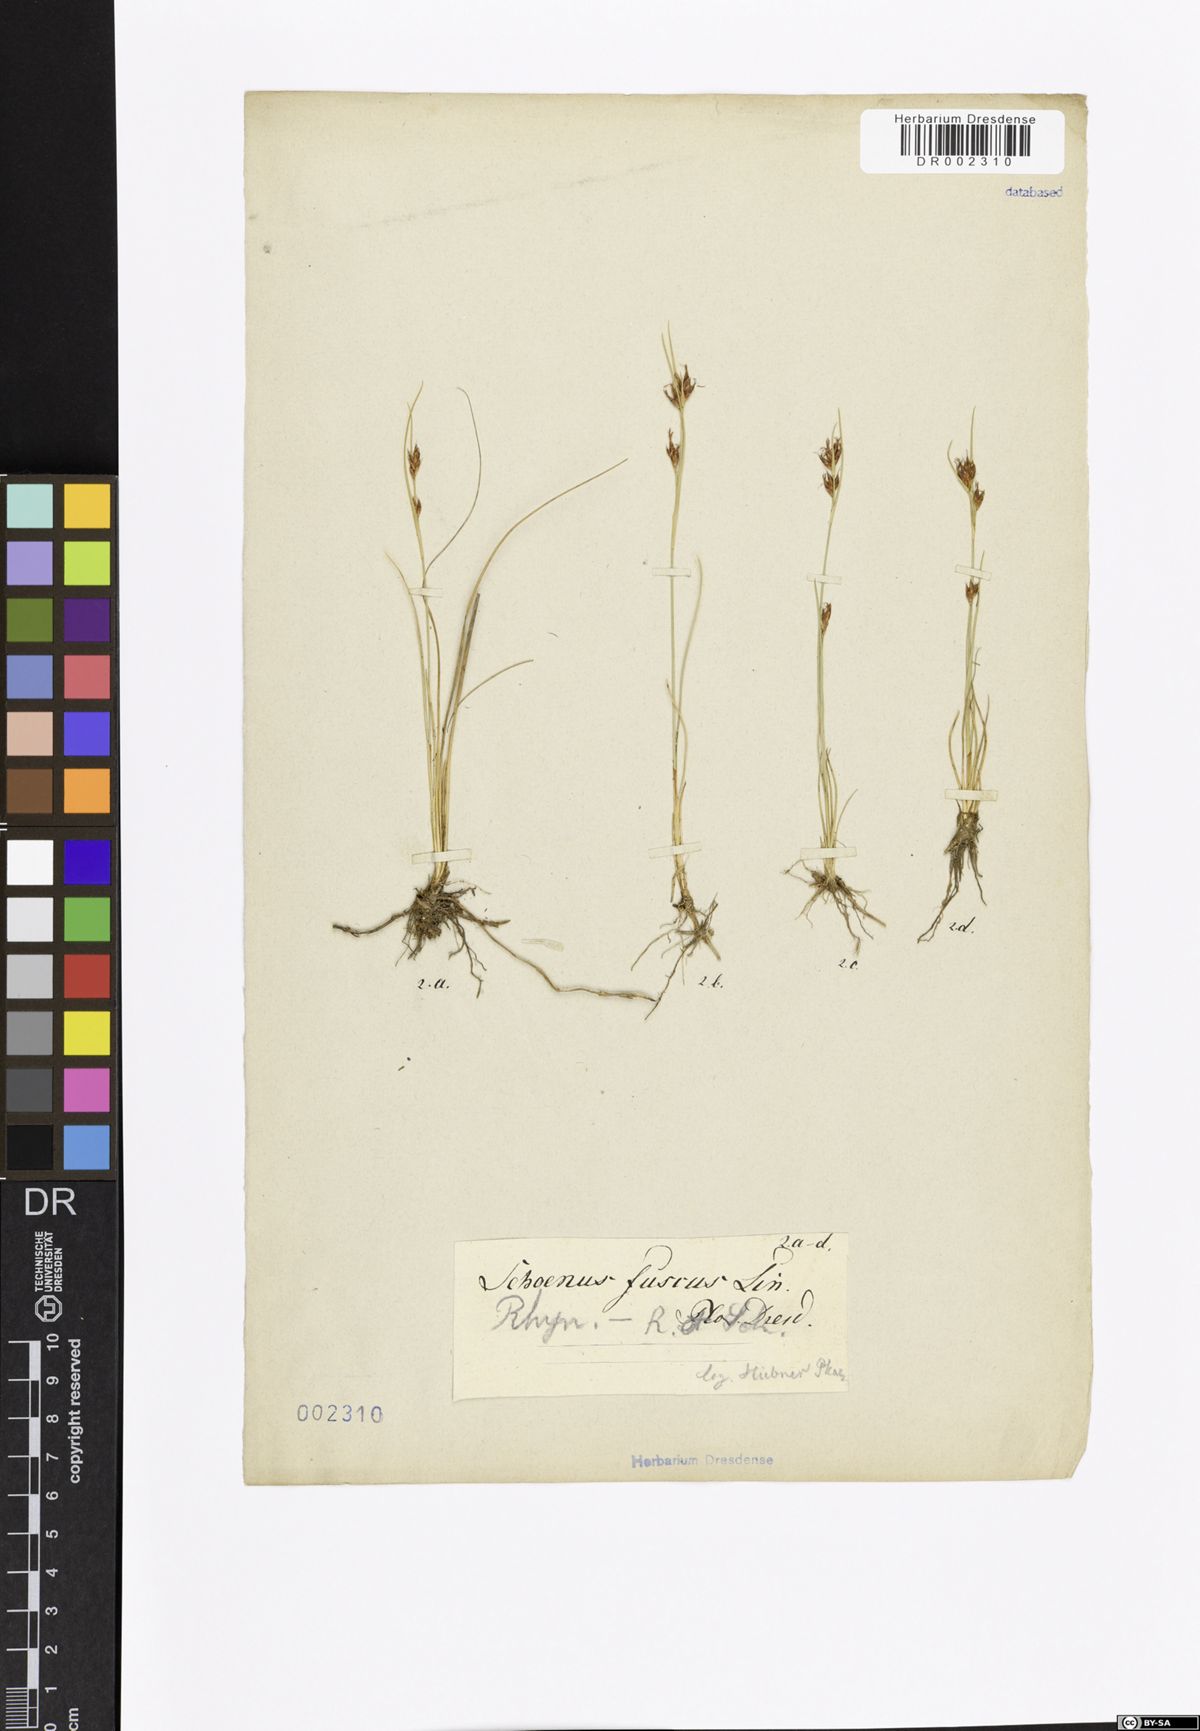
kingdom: Plantae
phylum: Tracheophyta
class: Liliopsida
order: Poales
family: Cyperaceae
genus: Rhynchospora
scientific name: Rhynchospora fusca
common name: Brown beak-sedge
